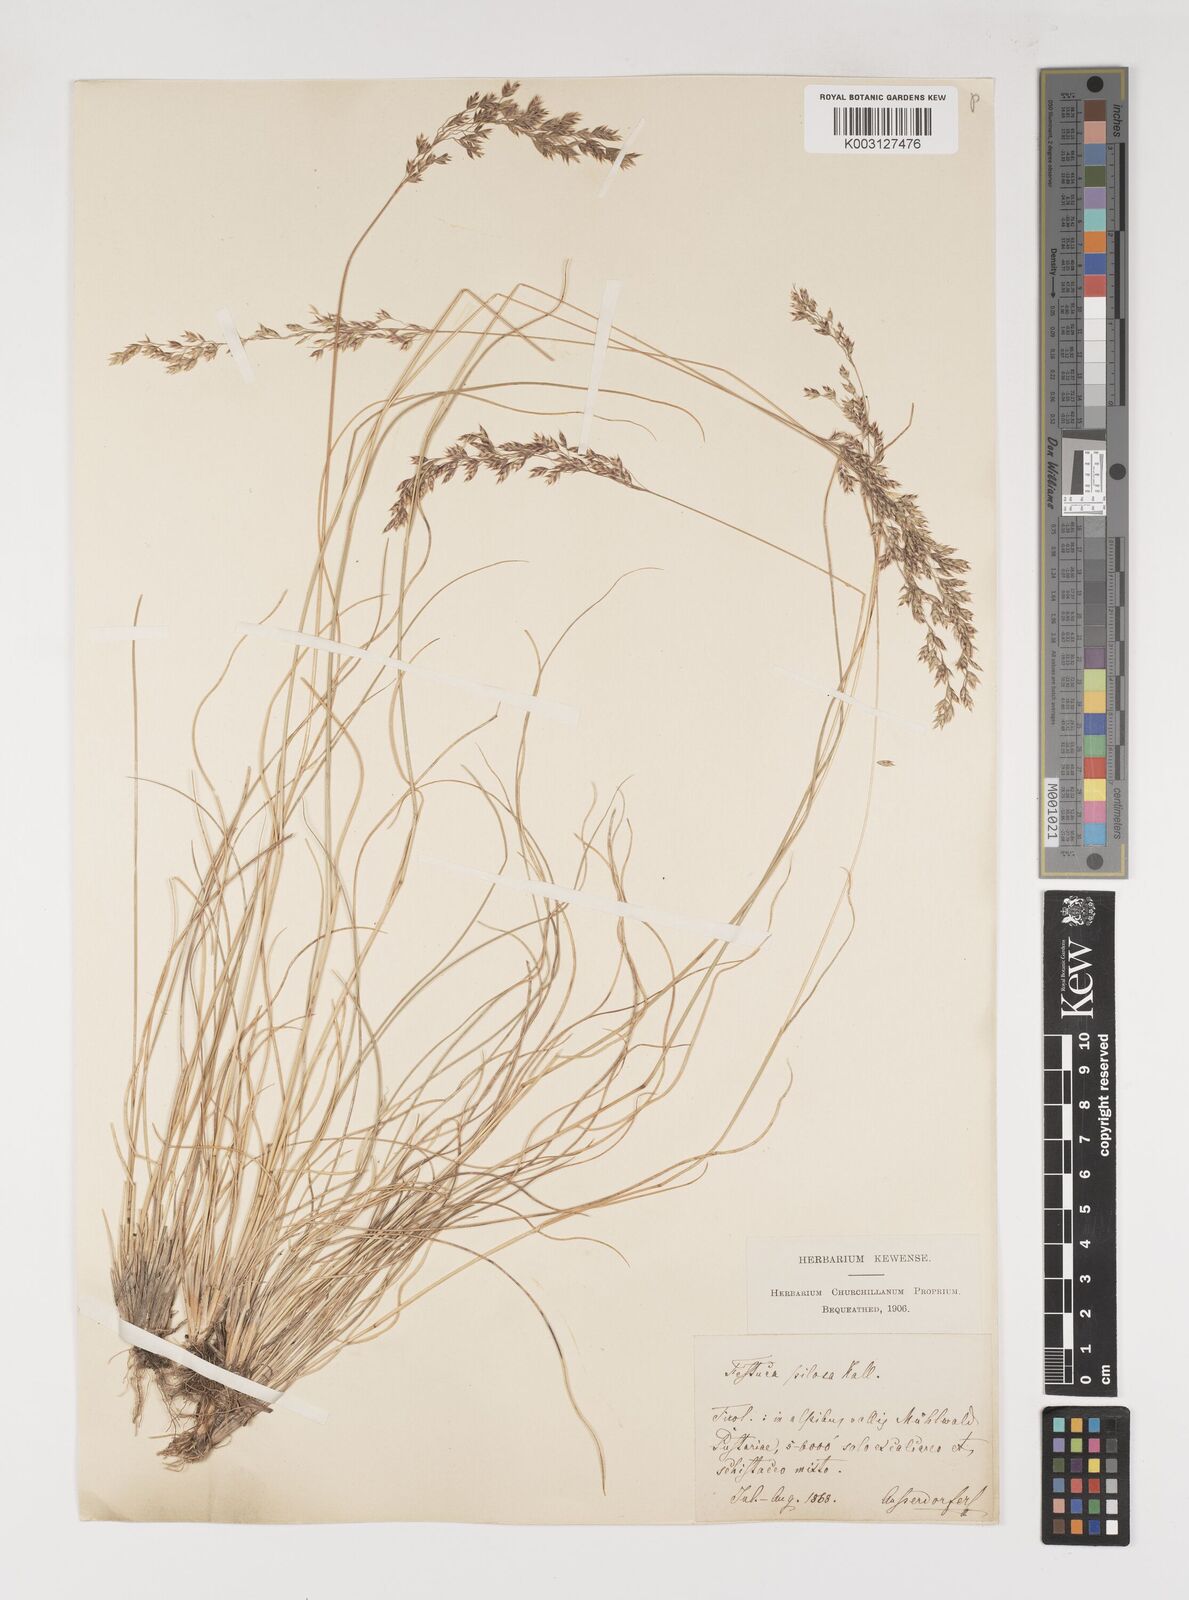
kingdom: Plantae
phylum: Tracheophyta
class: Liliopsida
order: Poales
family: Poaceae
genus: Bellardiochloa
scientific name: Bellardiochloa variegata
